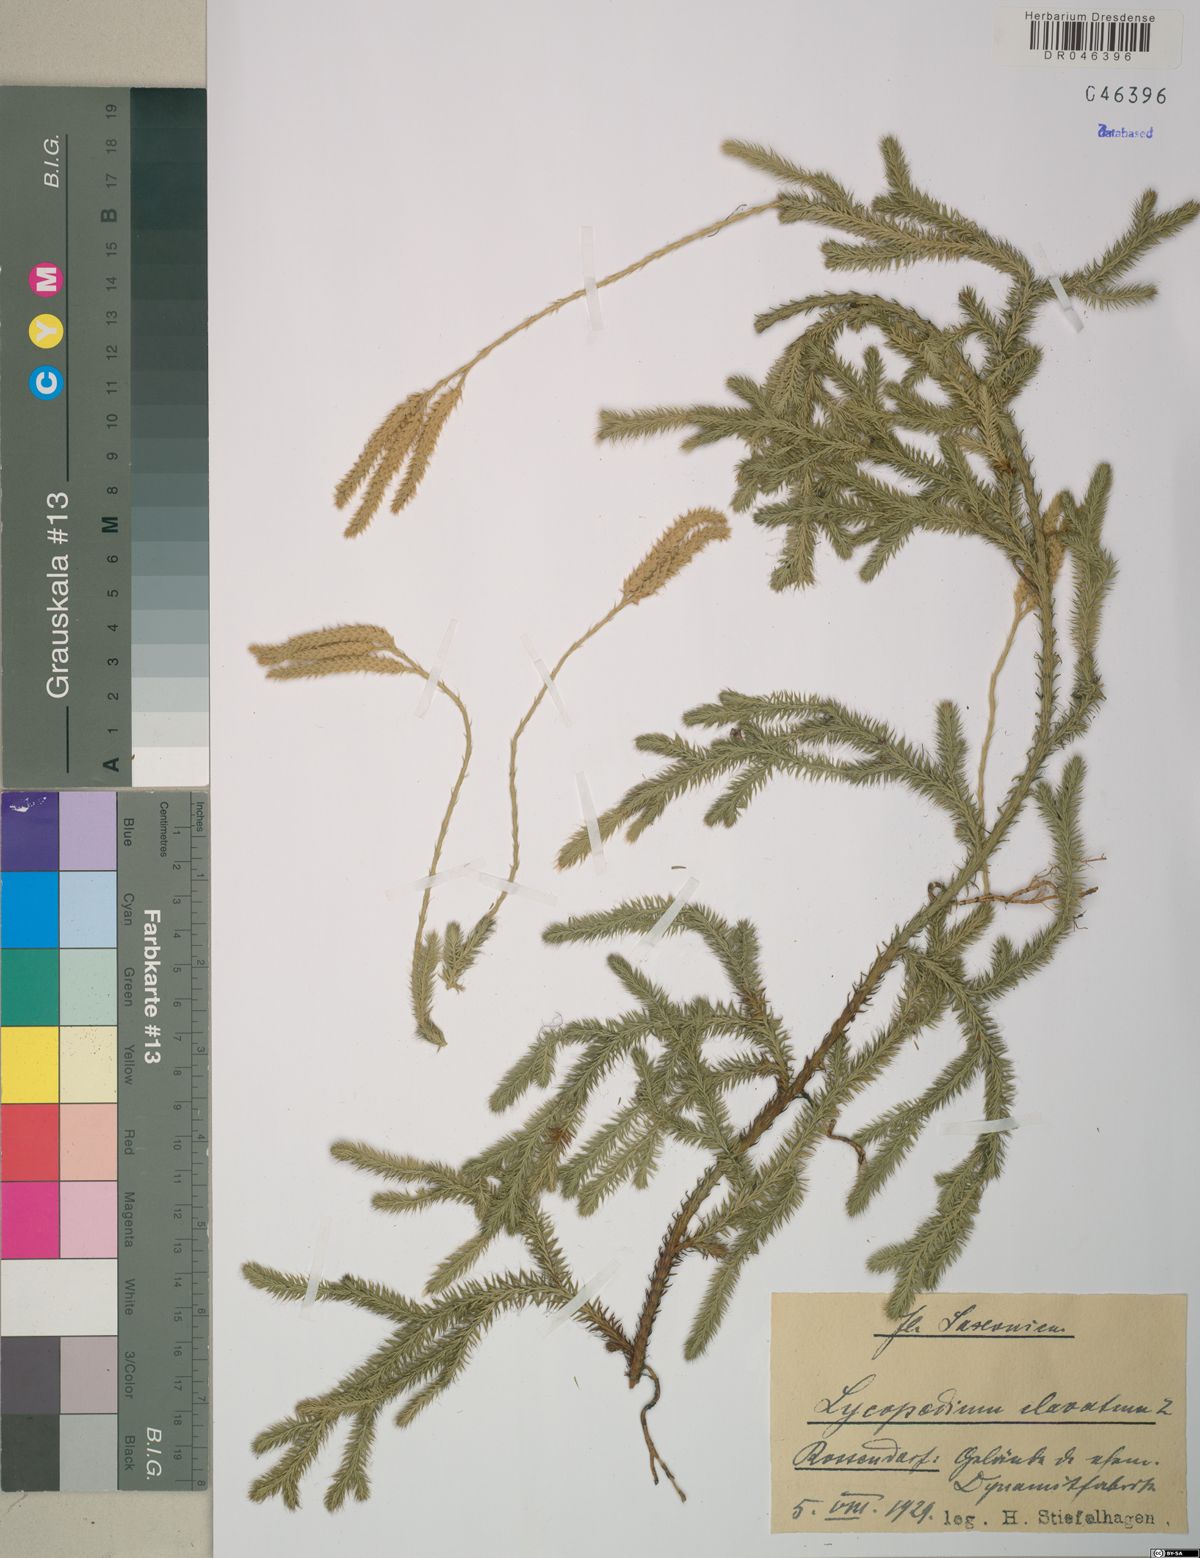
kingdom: Plantae
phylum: Tracheophyta
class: Lycopodiopsida
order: Lycopodiales
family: Lycopodiaceae
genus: Lycopodium
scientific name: Lycopodium clavatum
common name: Stag's-horn clubmoss
